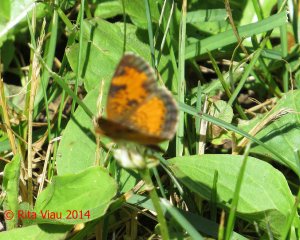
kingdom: Animalia
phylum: Arthropoda
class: Insecta
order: Lepidoptera
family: Nymphalidae
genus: Phyciodes
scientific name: Phyciodes tharos
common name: Northern Crescent
